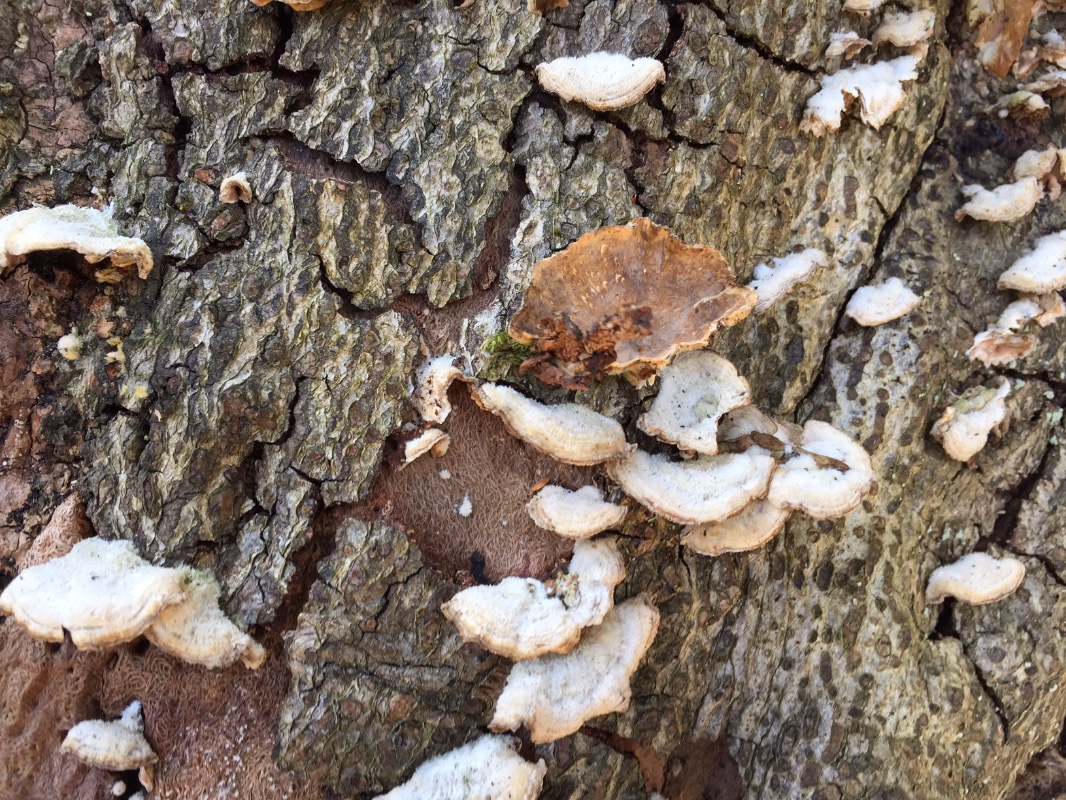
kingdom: Fungi
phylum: Basidiomycota
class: Agaricomycetes
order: Russulales
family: Stereaceae
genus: Stereum
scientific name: Stereum hirsutum
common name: håret lædersvamp
